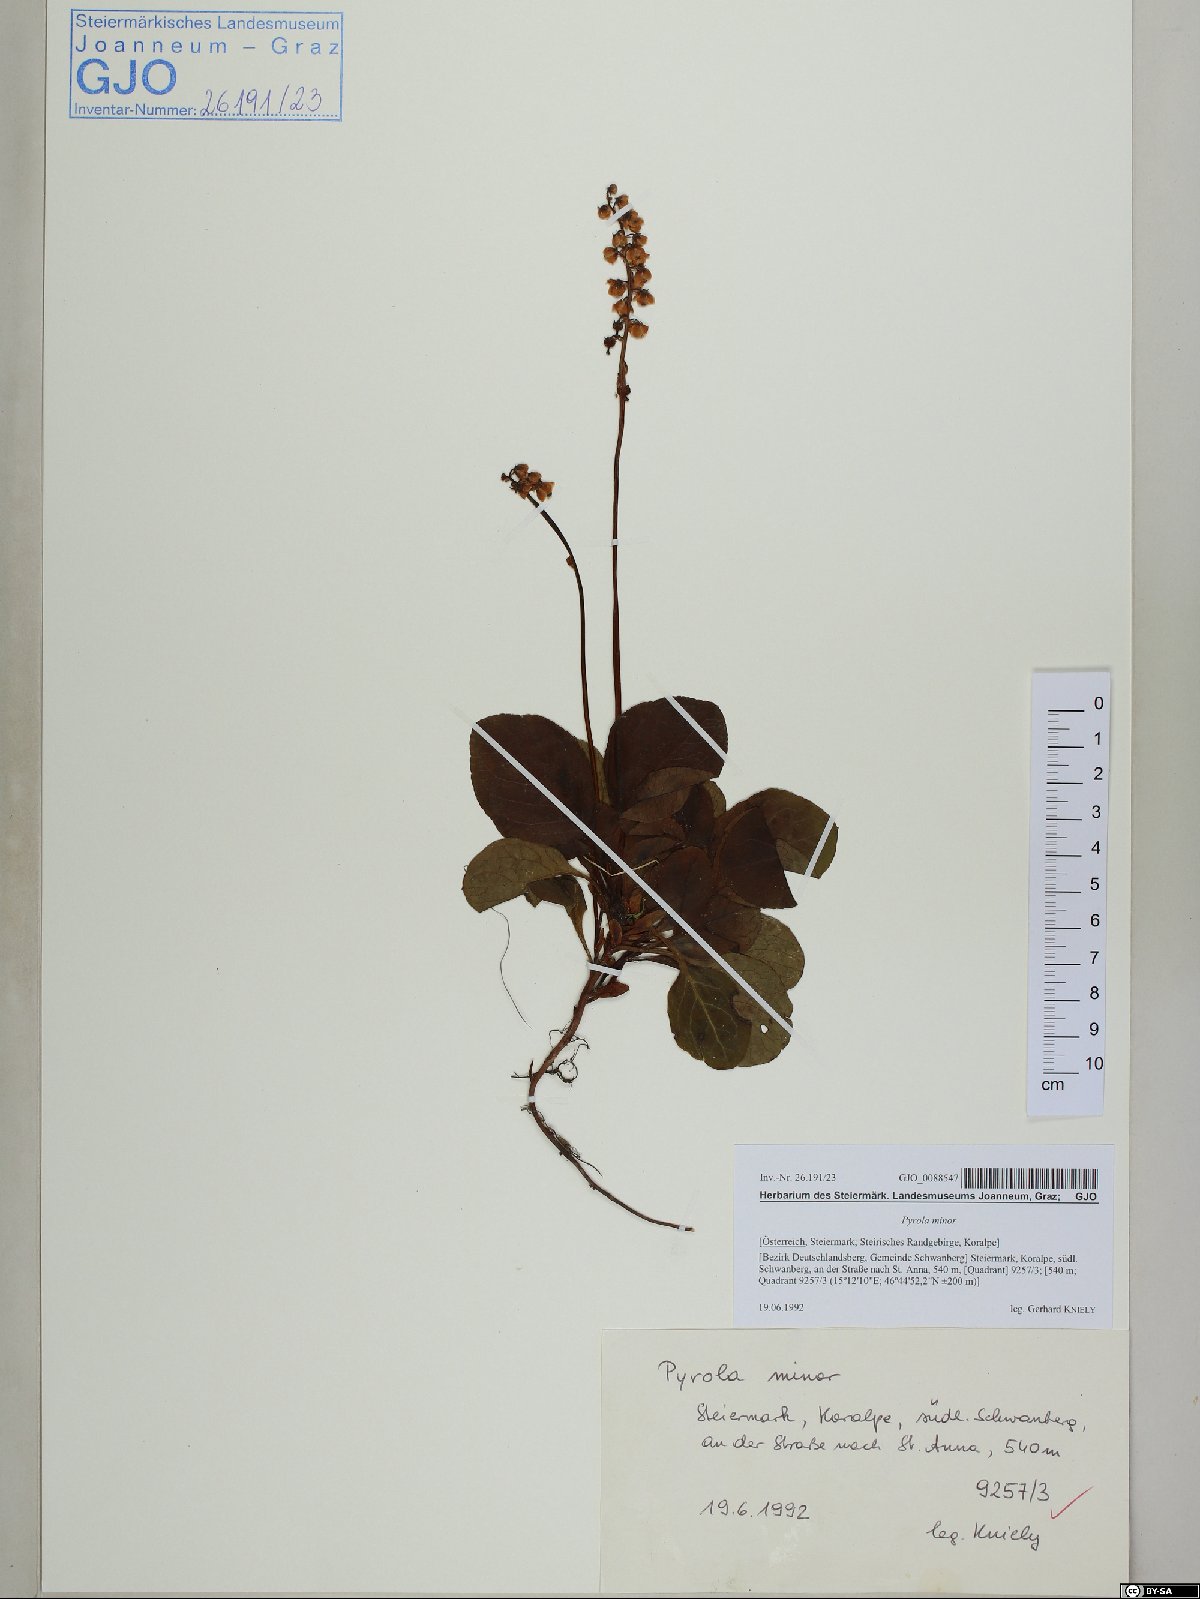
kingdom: Plantae
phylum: Tracheophyta
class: Magnoliopsida
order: Ericales
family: Ericaceae
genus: Pyrola
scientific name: Pyrola minor
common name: Common wintergreen
